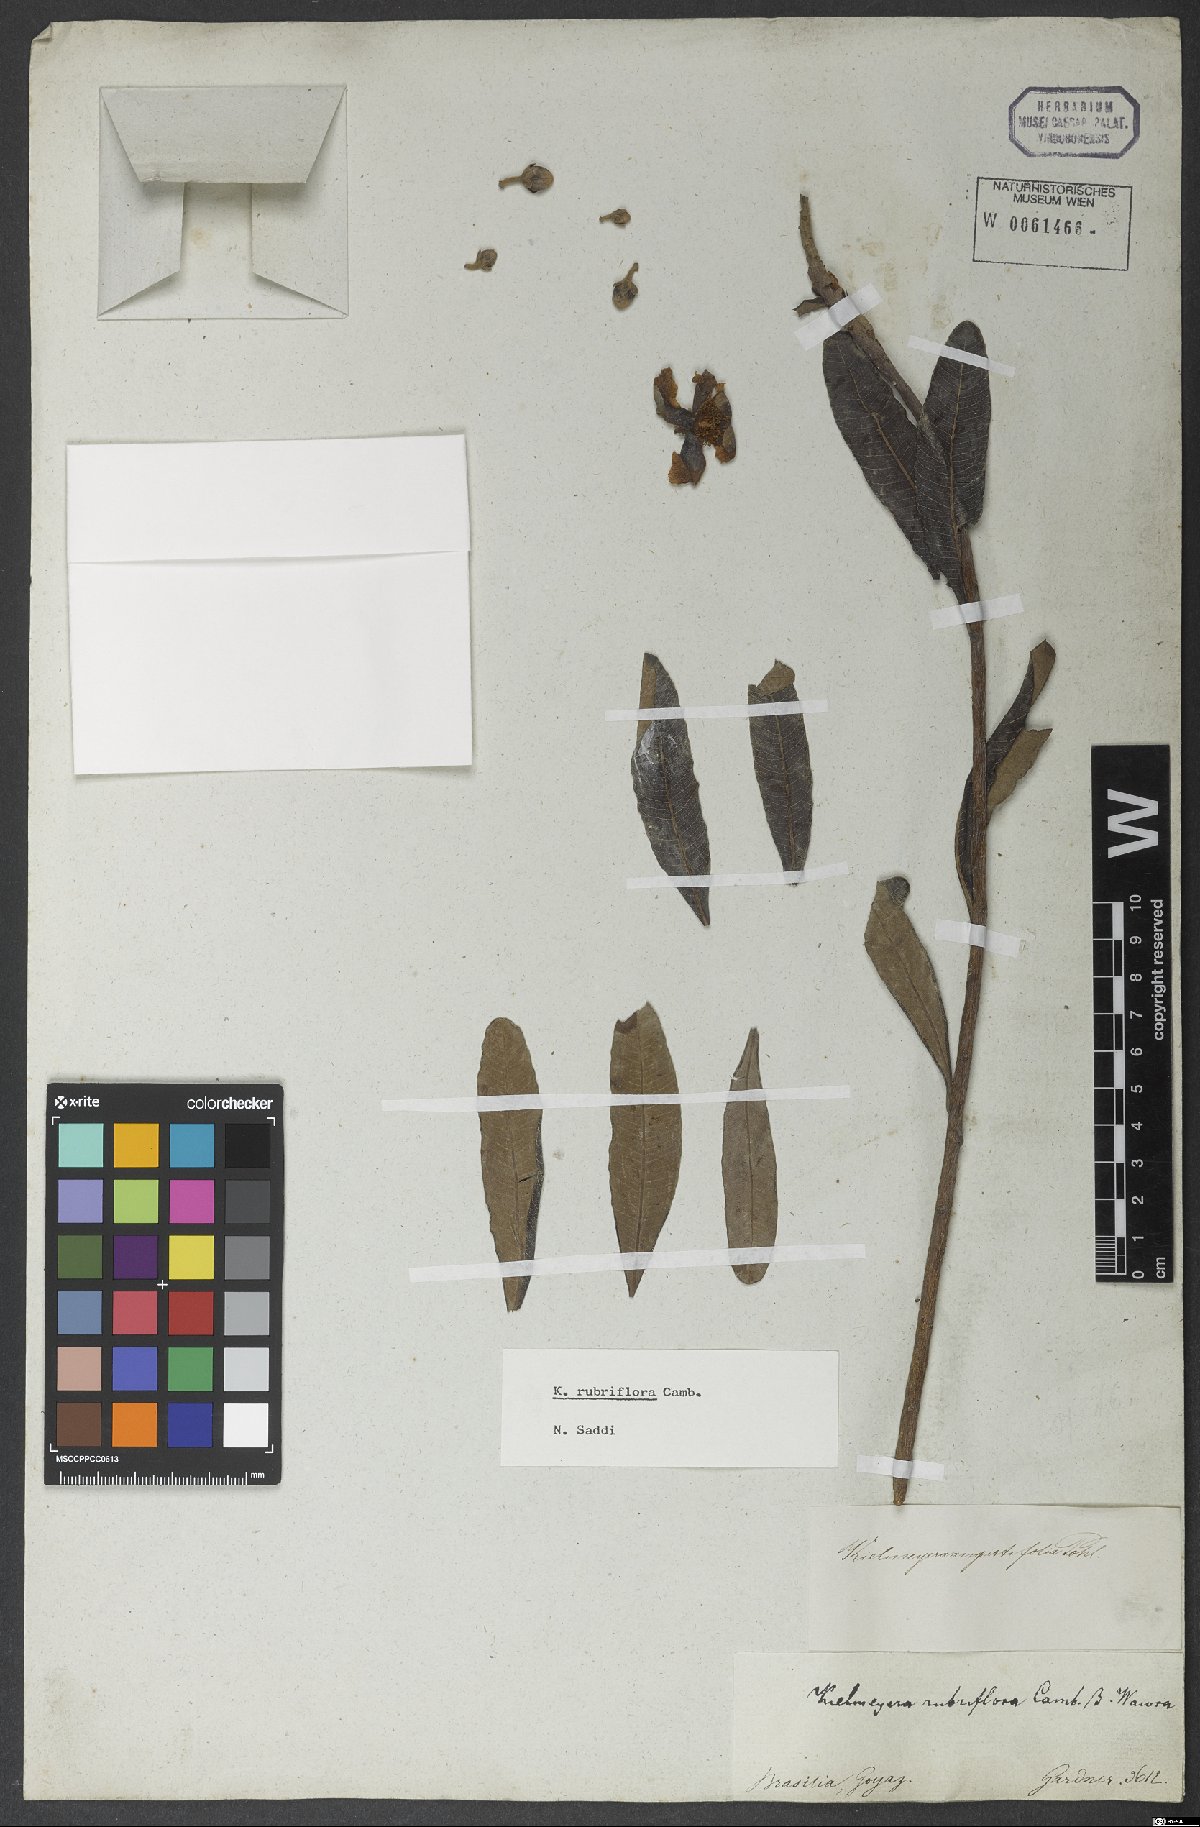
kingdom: Plantae
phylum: Tracheophyta
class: Magnoliopsida
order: Malpighiales
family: Calophyllaceae
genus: Kielmeyera
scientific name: Kielmeyera rubriflora
